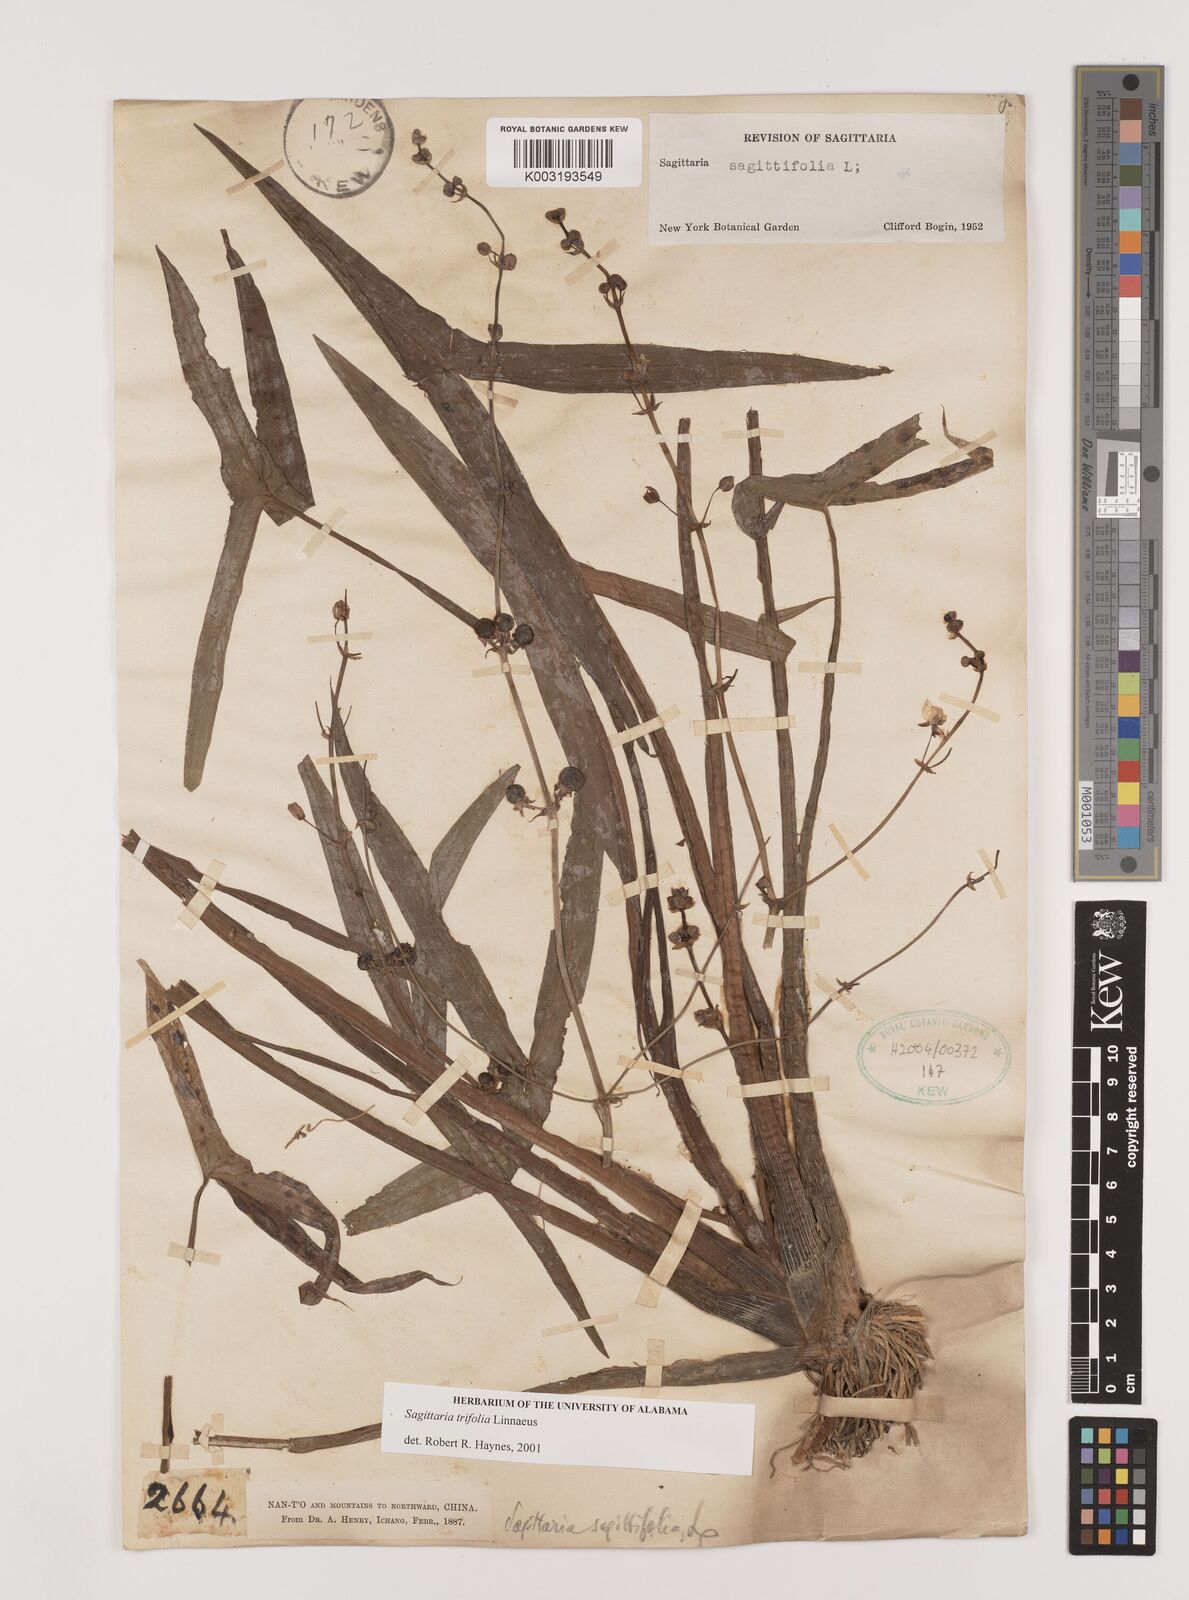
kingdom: Plantae
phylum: Tracheophyta
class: Liliopsida
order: Alismatales
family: Alismataceae
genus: Sagittaria
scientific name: Sagittaria trifolia
